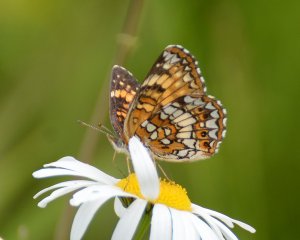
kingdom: Animalia
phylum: Arthropoda
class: Insecta
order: Lepidoptera
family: Nymphalidae
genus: Chlosyne
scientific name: Chlosyne harrisii
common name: Harris's Checkerspot
